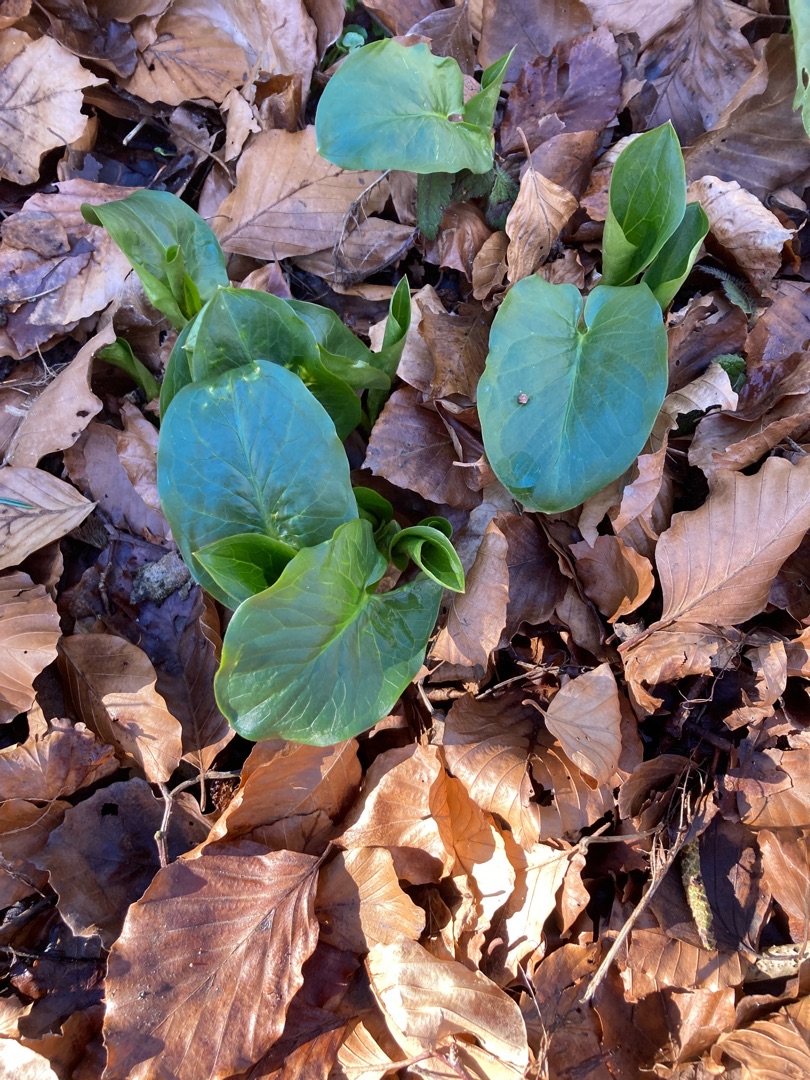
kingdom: Plantae
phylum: Tracheophyta
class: Liliopsida
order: Alismatales
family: Araceae
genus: Arum
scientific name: Arum
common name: Arumslægten
